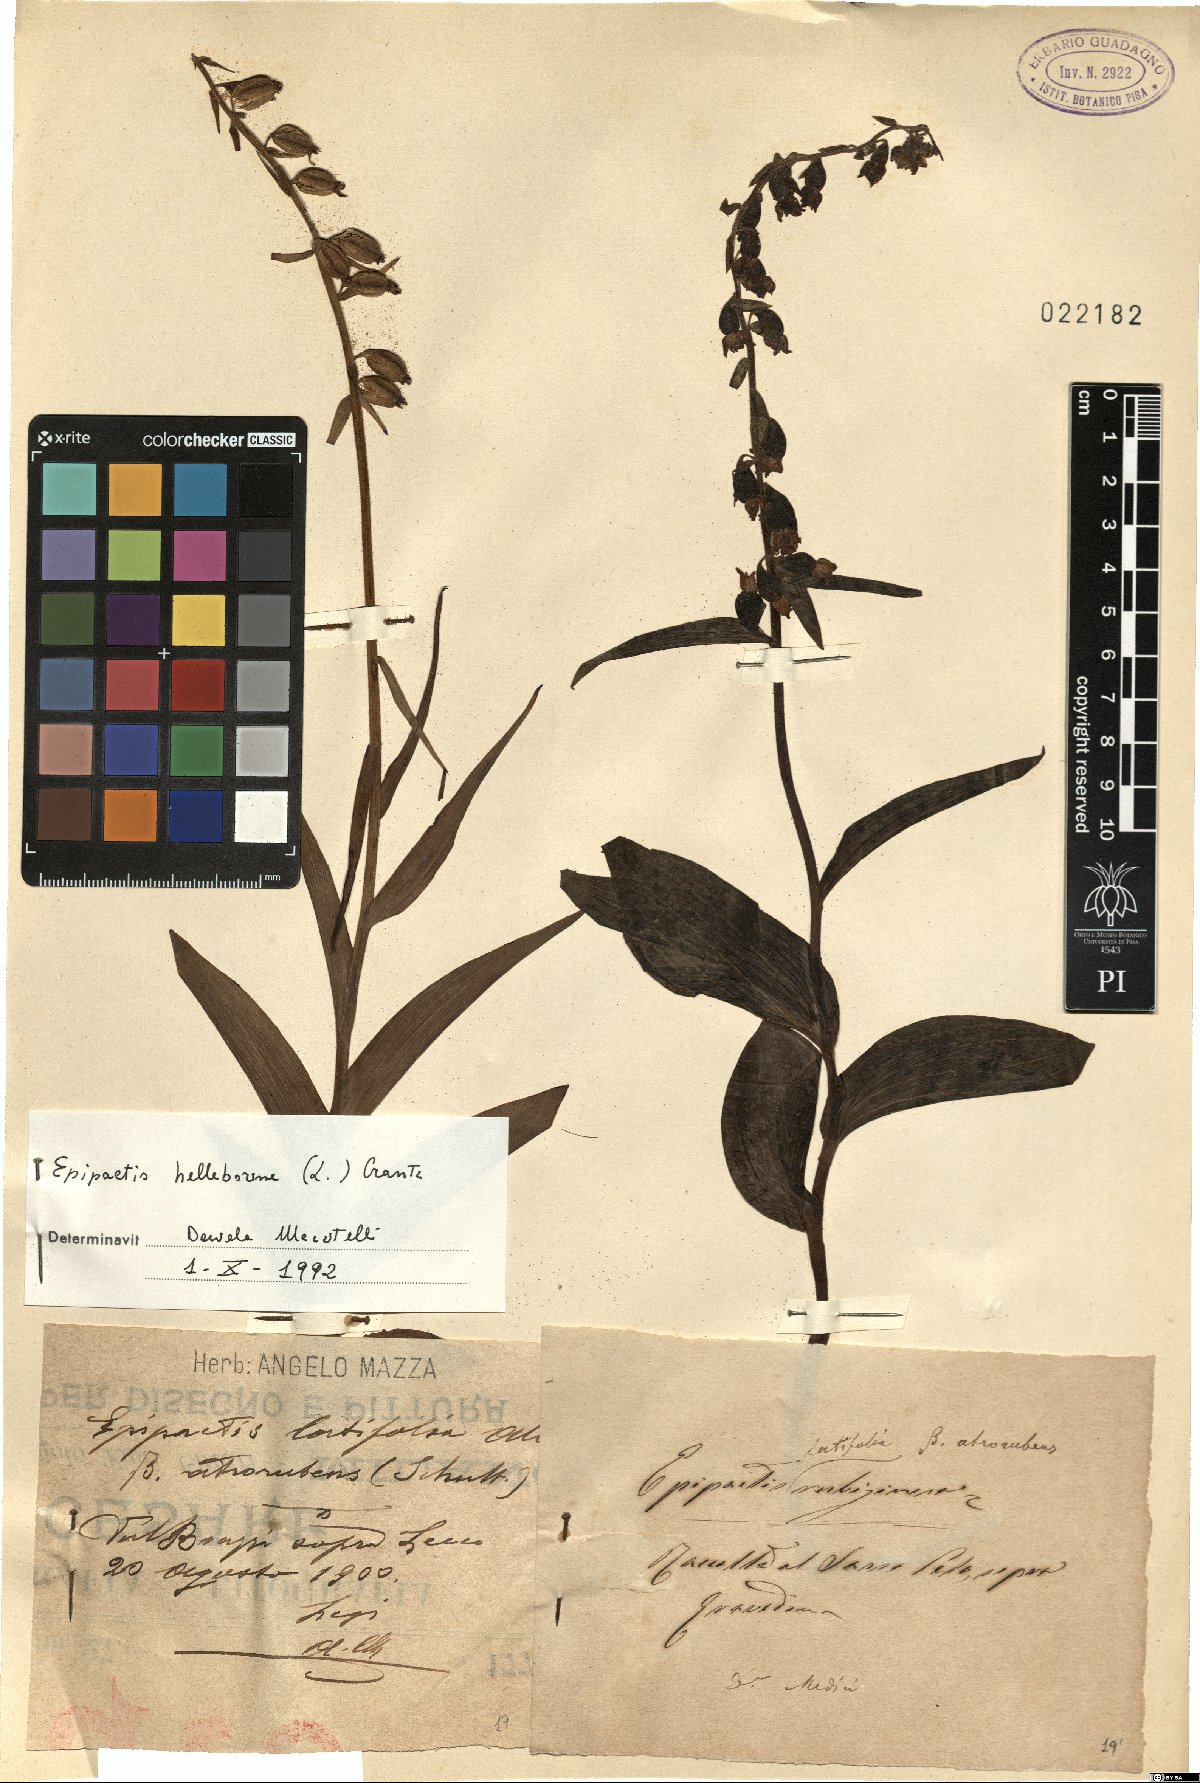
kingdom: Plantae
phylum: Tracheophyta
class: Liliopsida
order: Asparagales
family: Orchidaceae
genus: Epipactis
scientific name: Epipactis helleborine
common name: Broad-leaved helleborine
